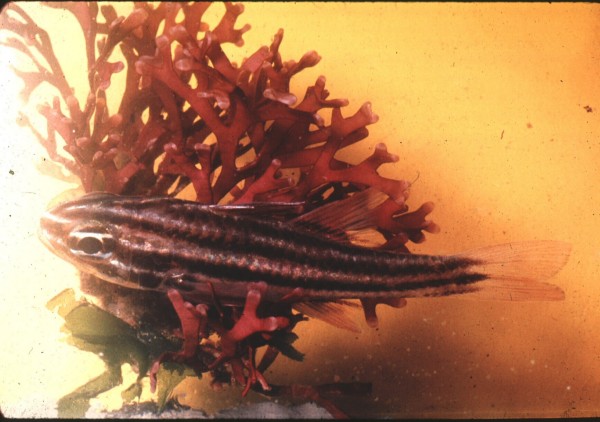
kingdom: Animalia
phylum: Chordata
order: Perciformes
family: Apogonidae
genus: Ostorhinchus
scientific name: Ostorhinchus cookii
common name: Cook's cardinalfish
